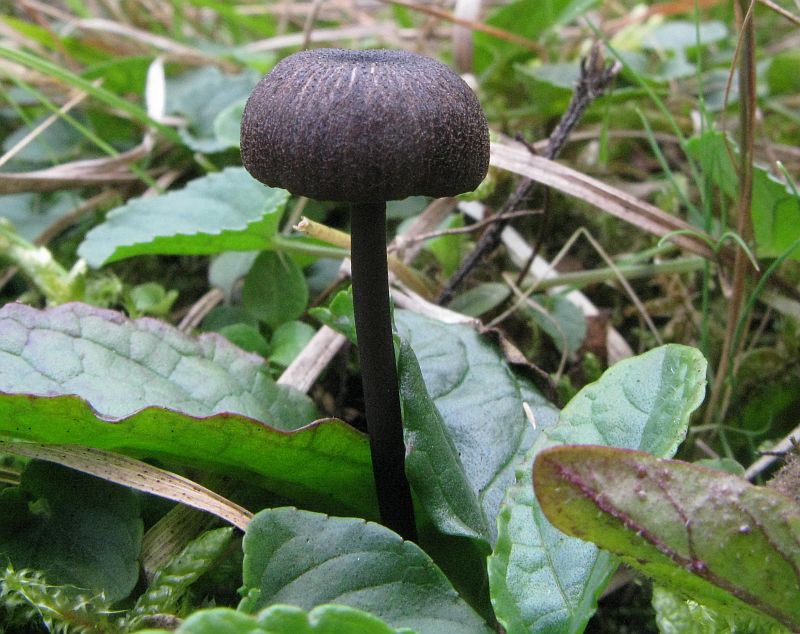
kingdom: Fungi
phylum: Basidiomycota
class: Agaricomycetes
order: Agaricales
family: Entolomataceae
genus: Entoloma
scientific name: Entoloma asprellum
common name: ru rødblad
